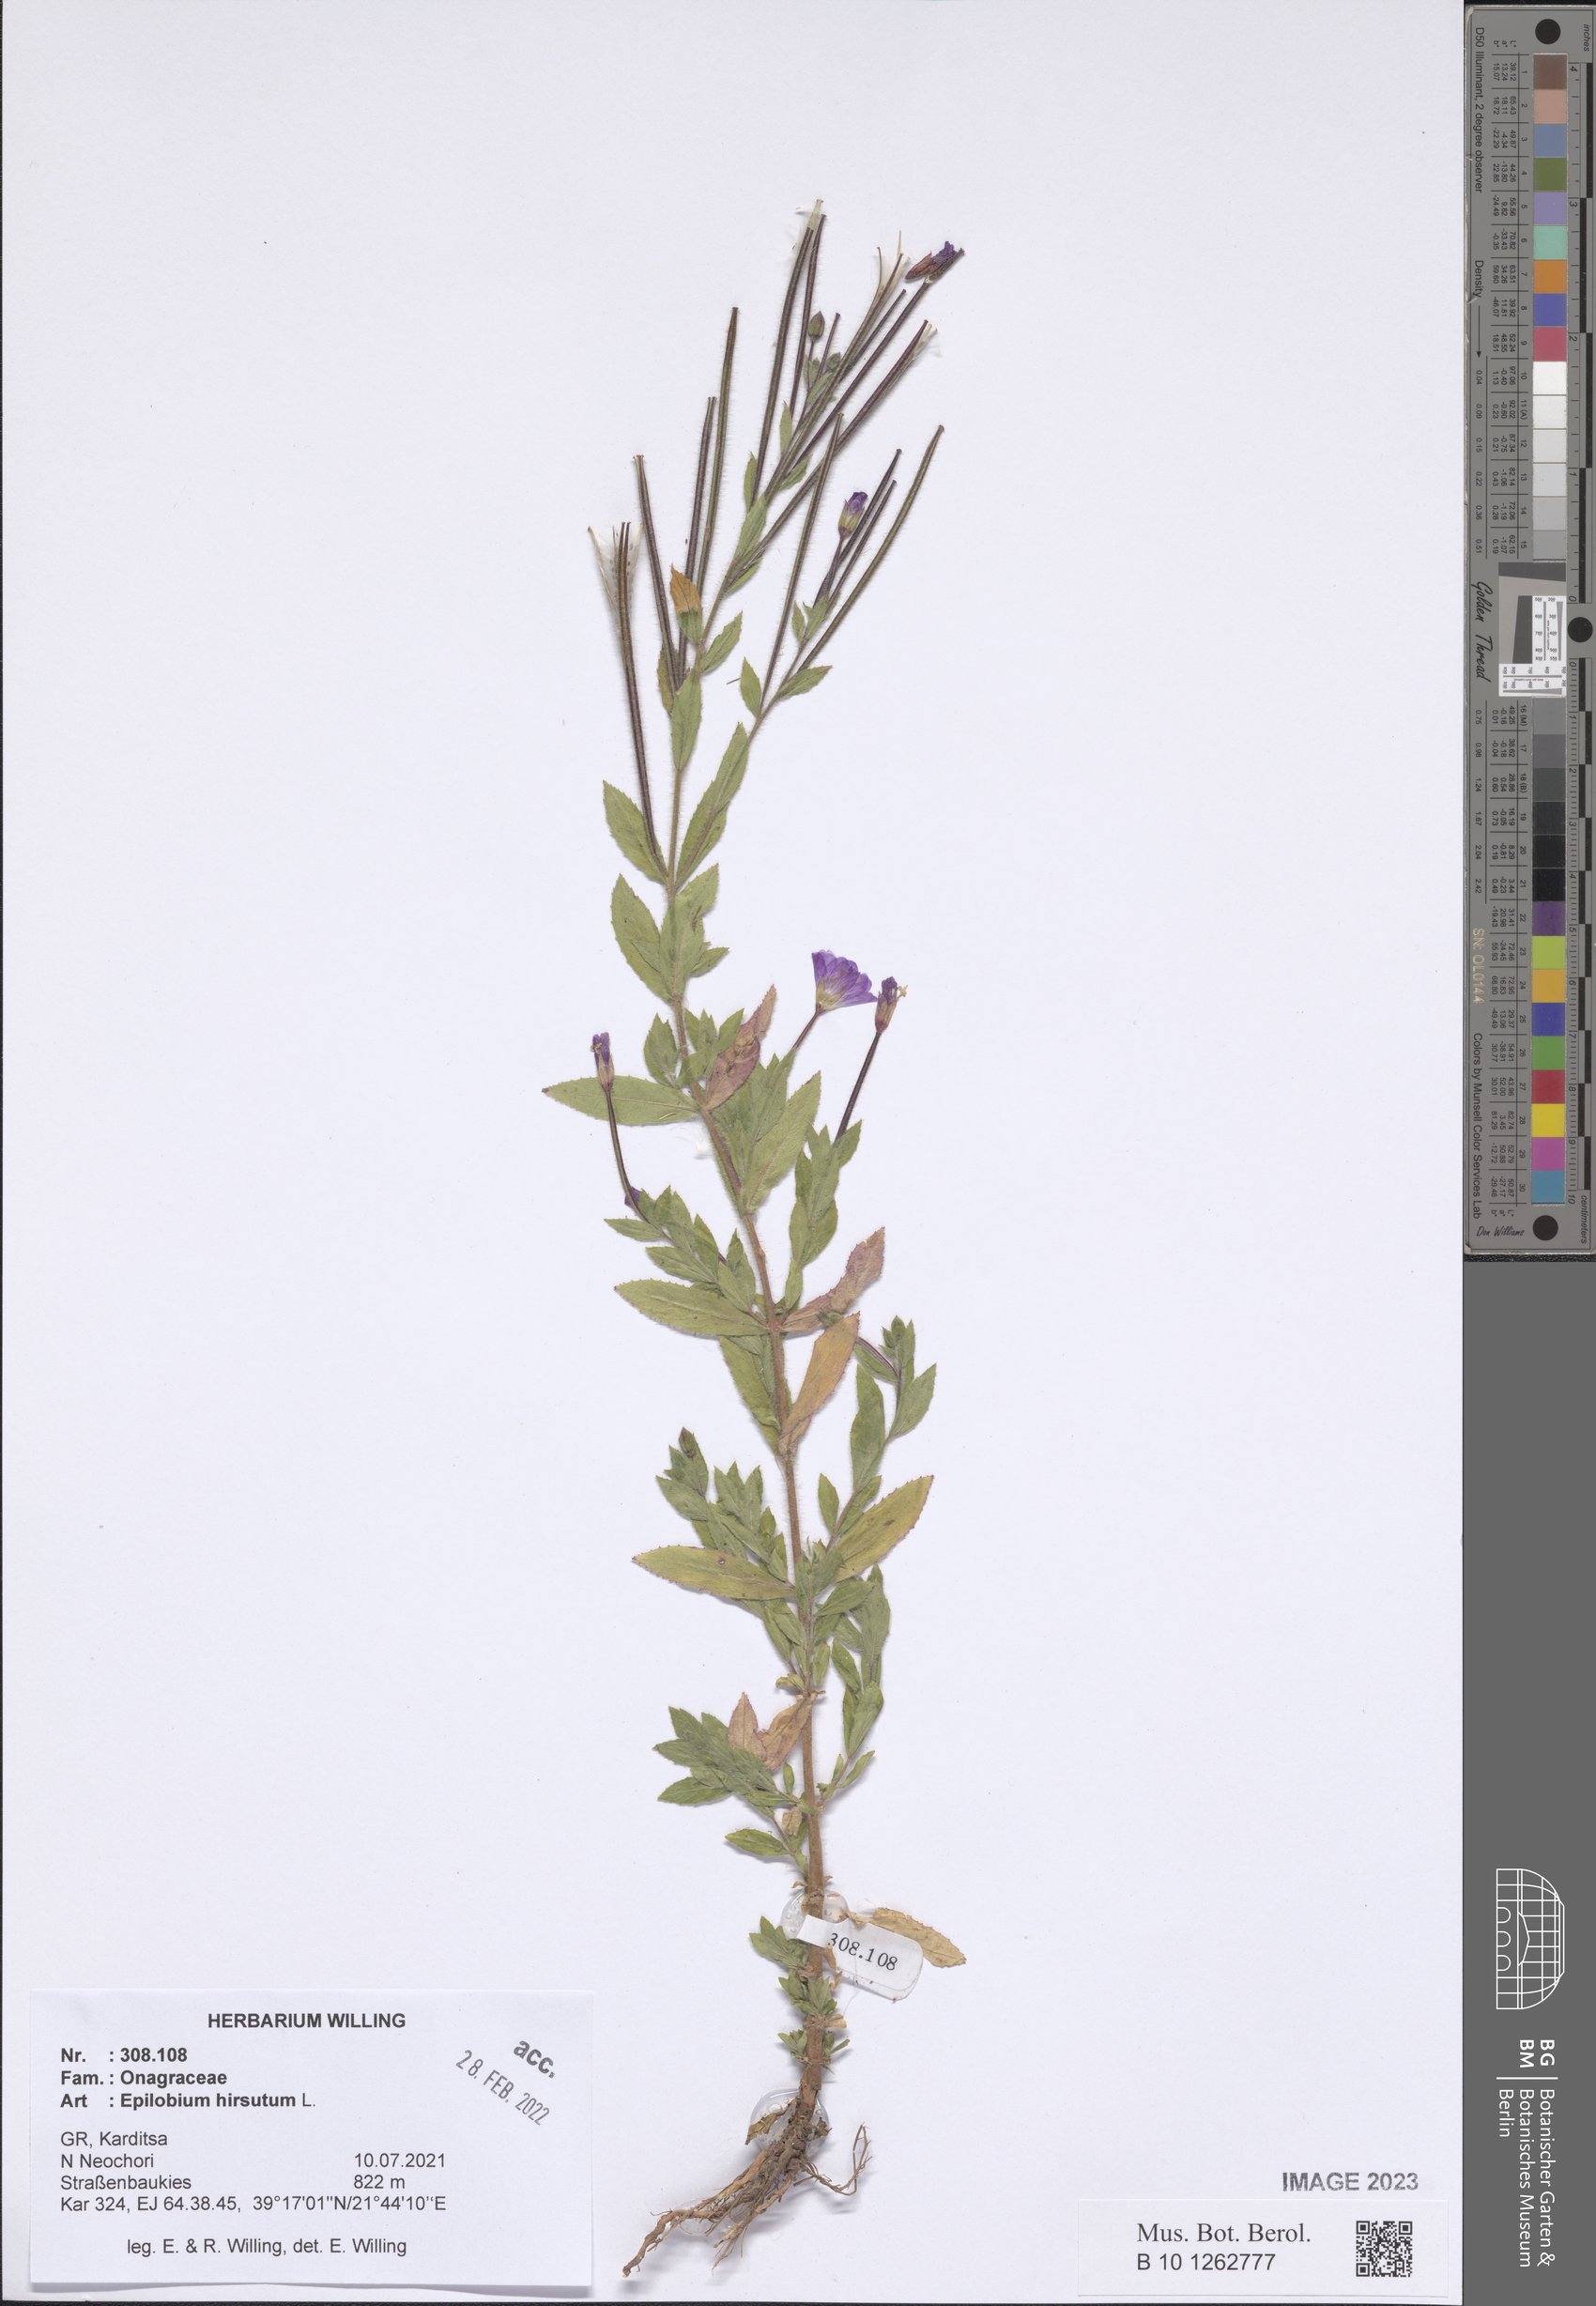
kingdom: Plantae
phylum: Tracheophyta
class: Magnoliopsida
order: Myrtales
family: Onagraceae
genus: Epilobium
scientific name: Epilobium hirsutum
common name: Great willowherb
